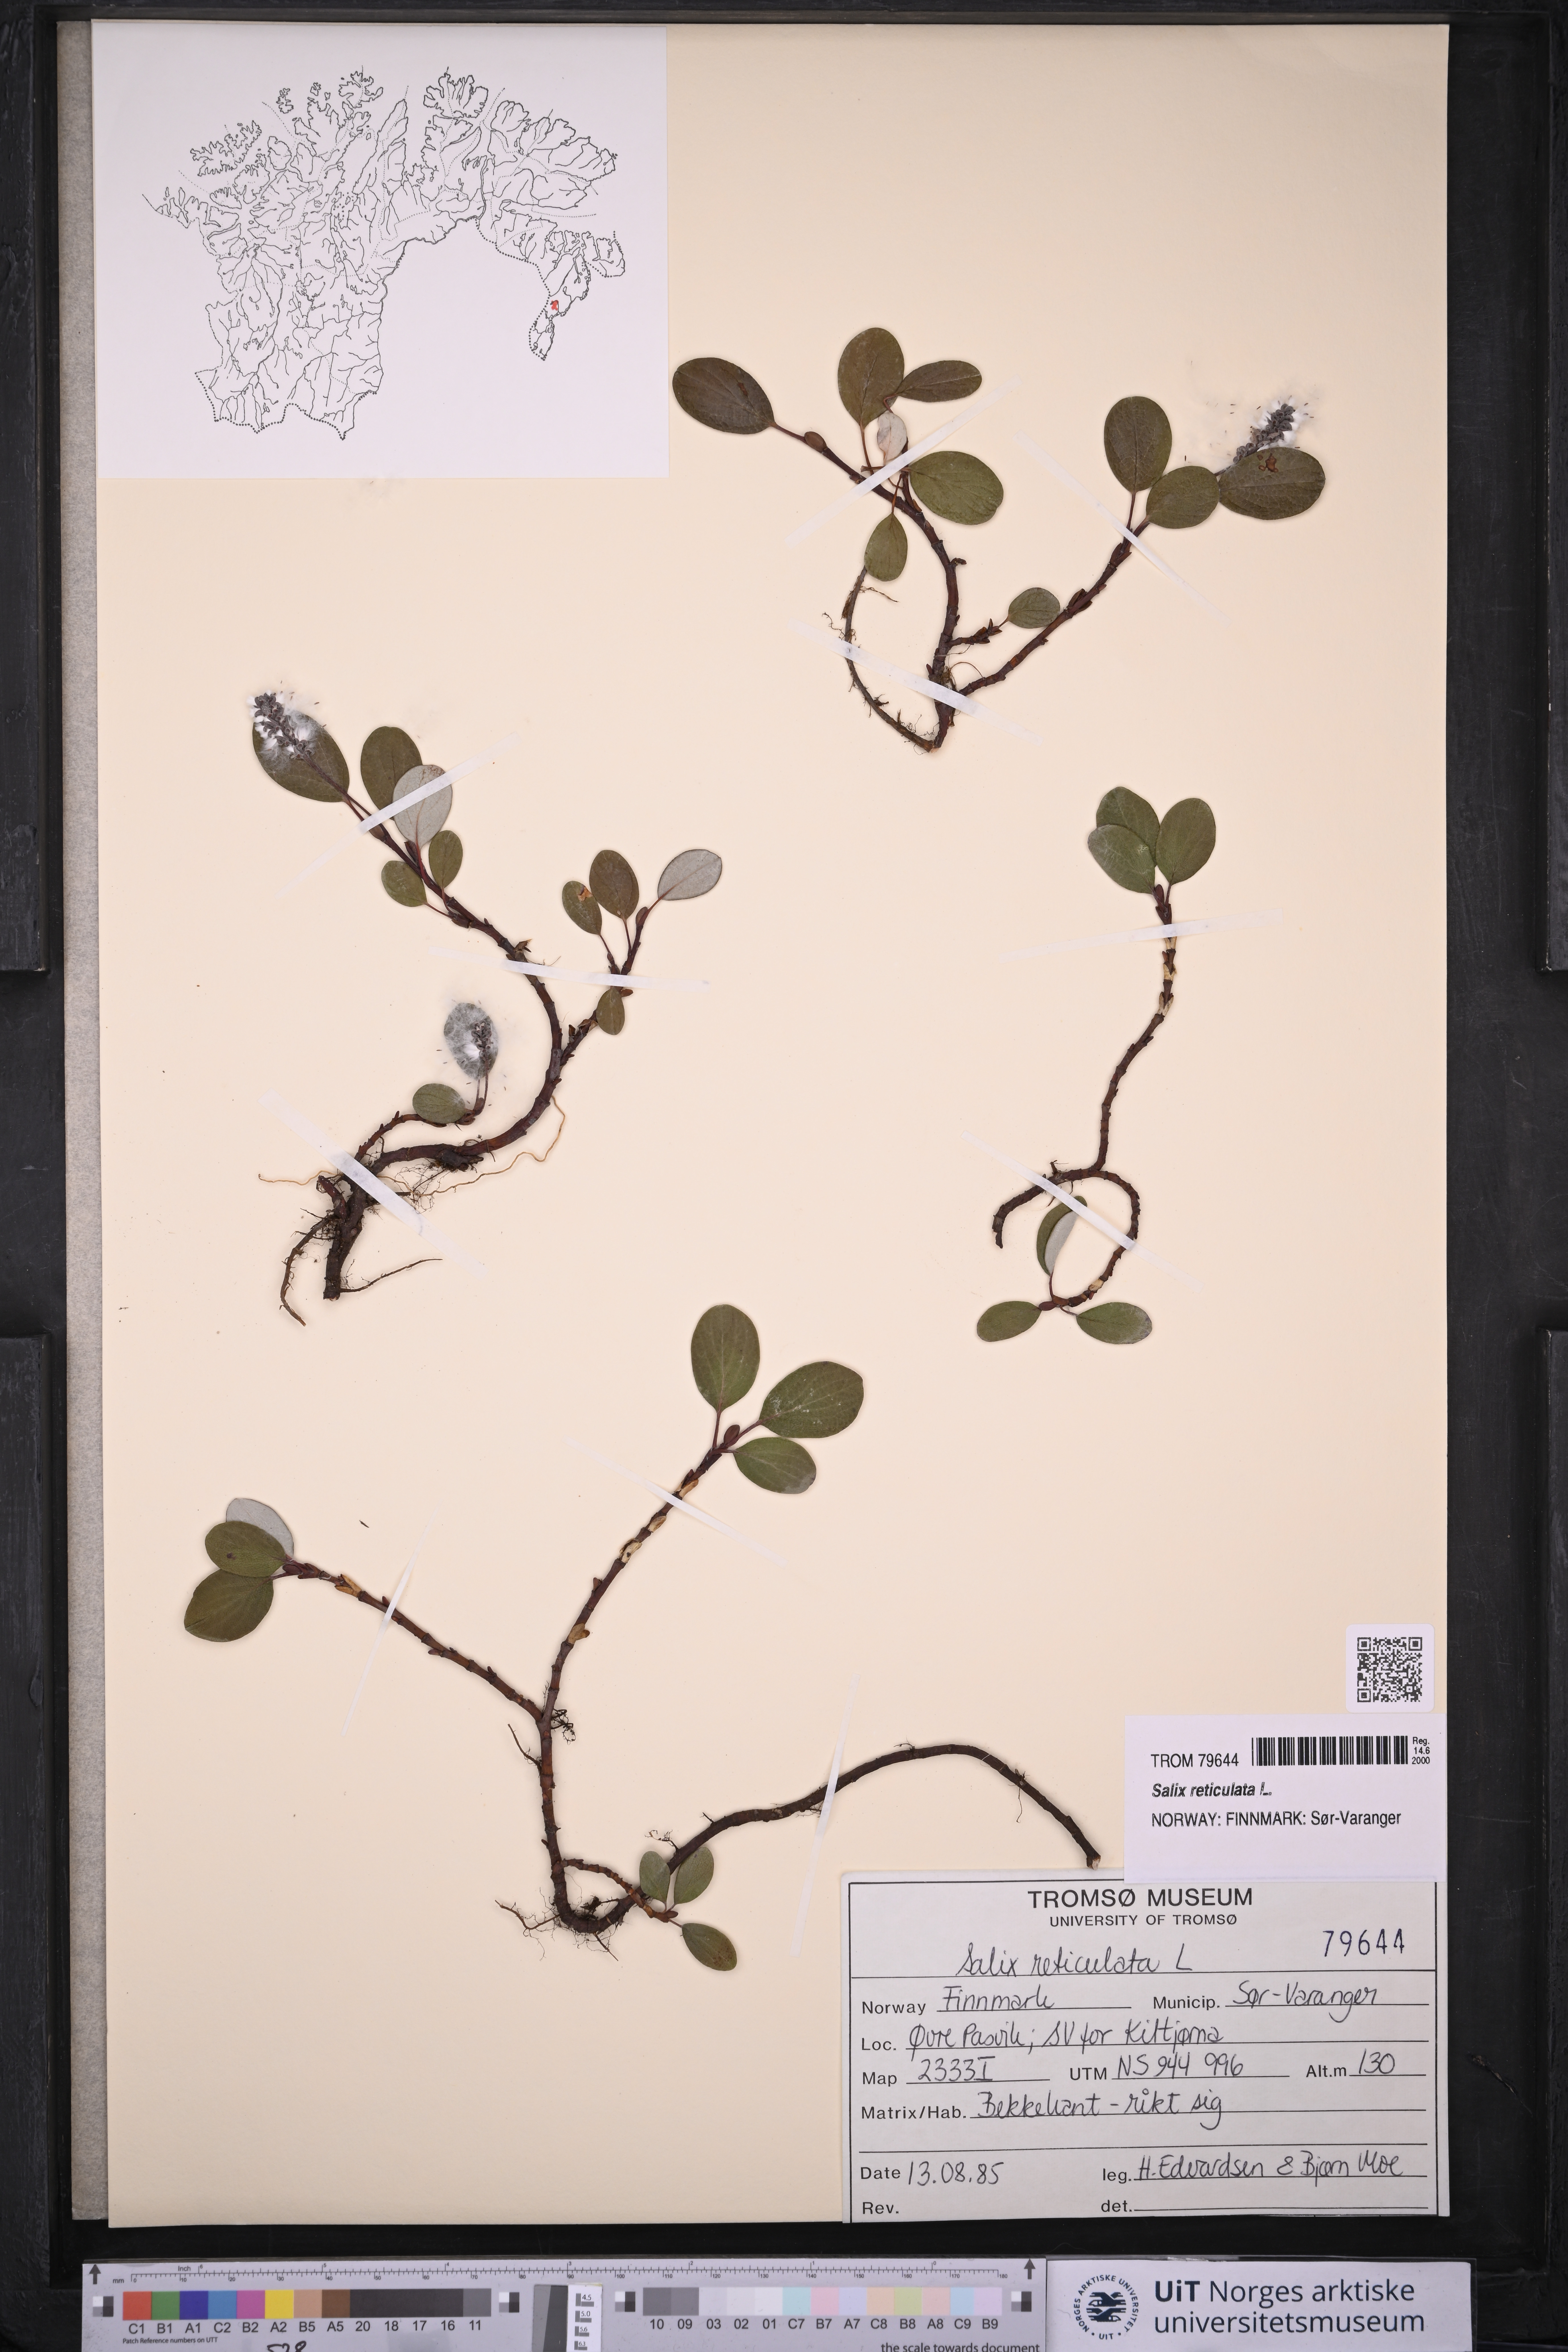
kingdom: Plantae
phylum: Tracheophyta
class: Magnoliopsida
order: Malpighiales
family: Salicaceae
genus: Salix
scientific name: Salix reticulata
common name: Net-leaved willow
